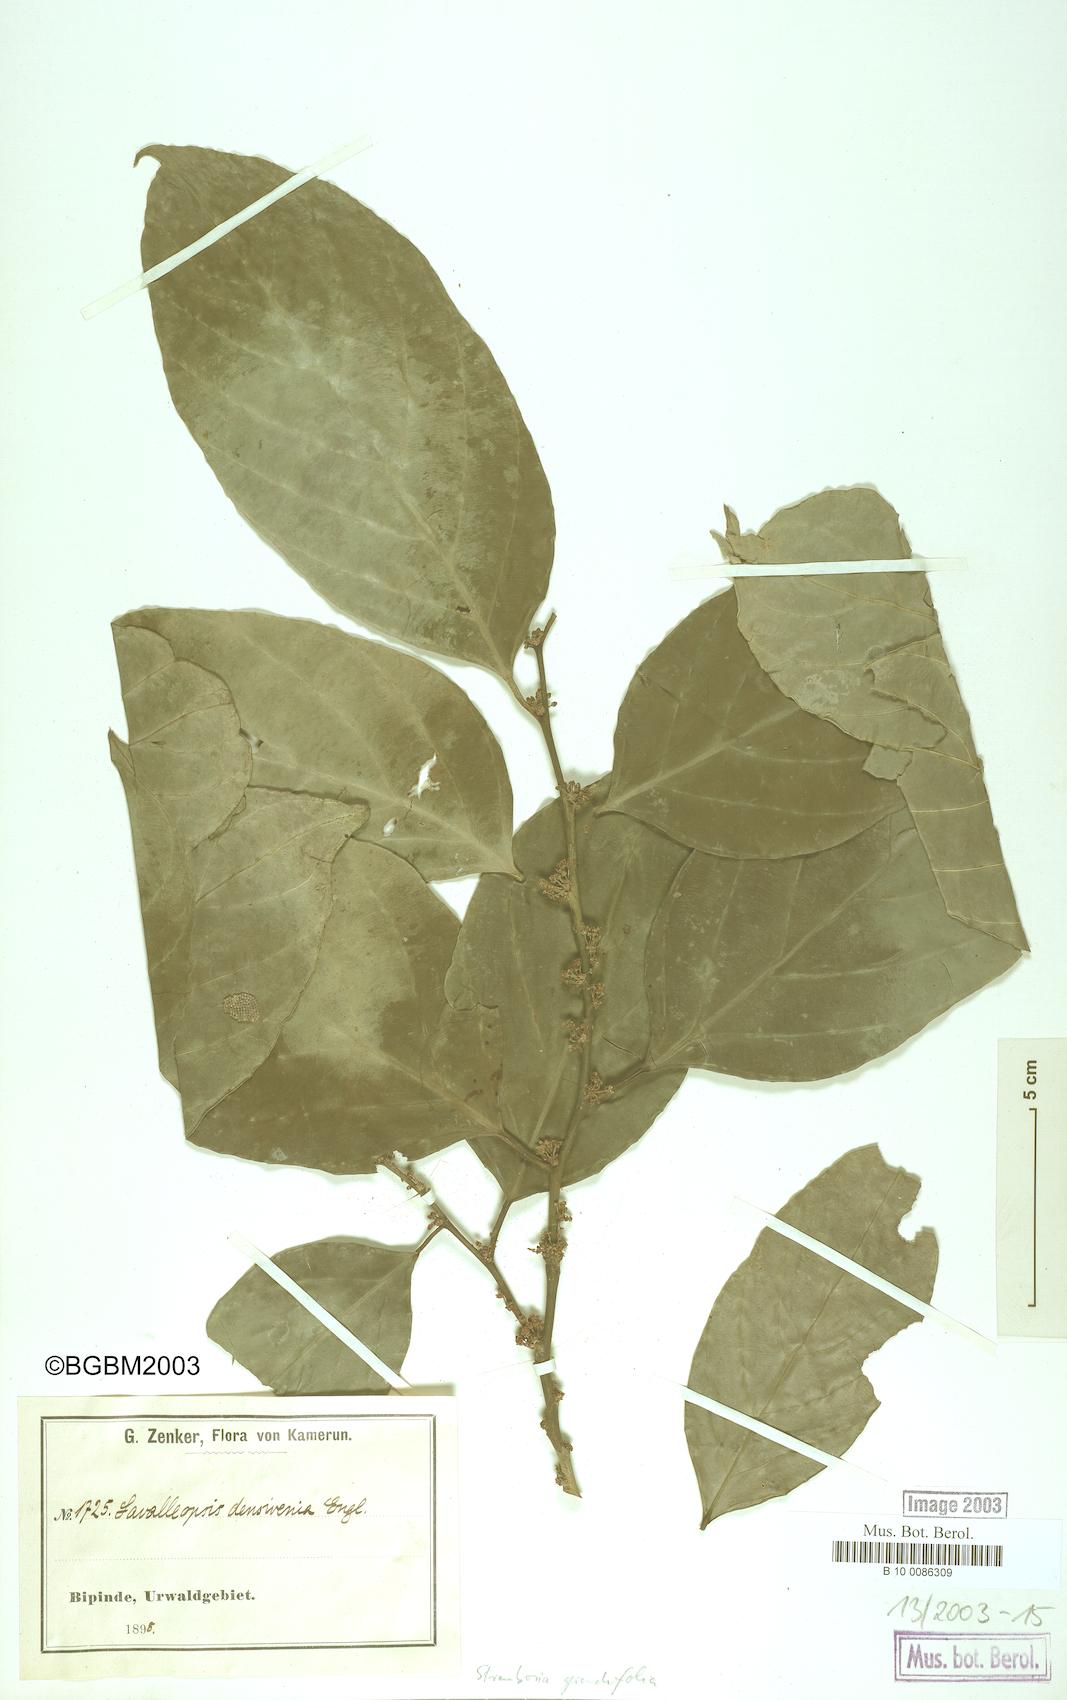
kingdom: Plantae
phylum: Tracheophyta
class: Magnoliopsida
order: Santalales
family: Strombosiaceae
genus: Strombosia
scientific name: Strombosia grandifolia
